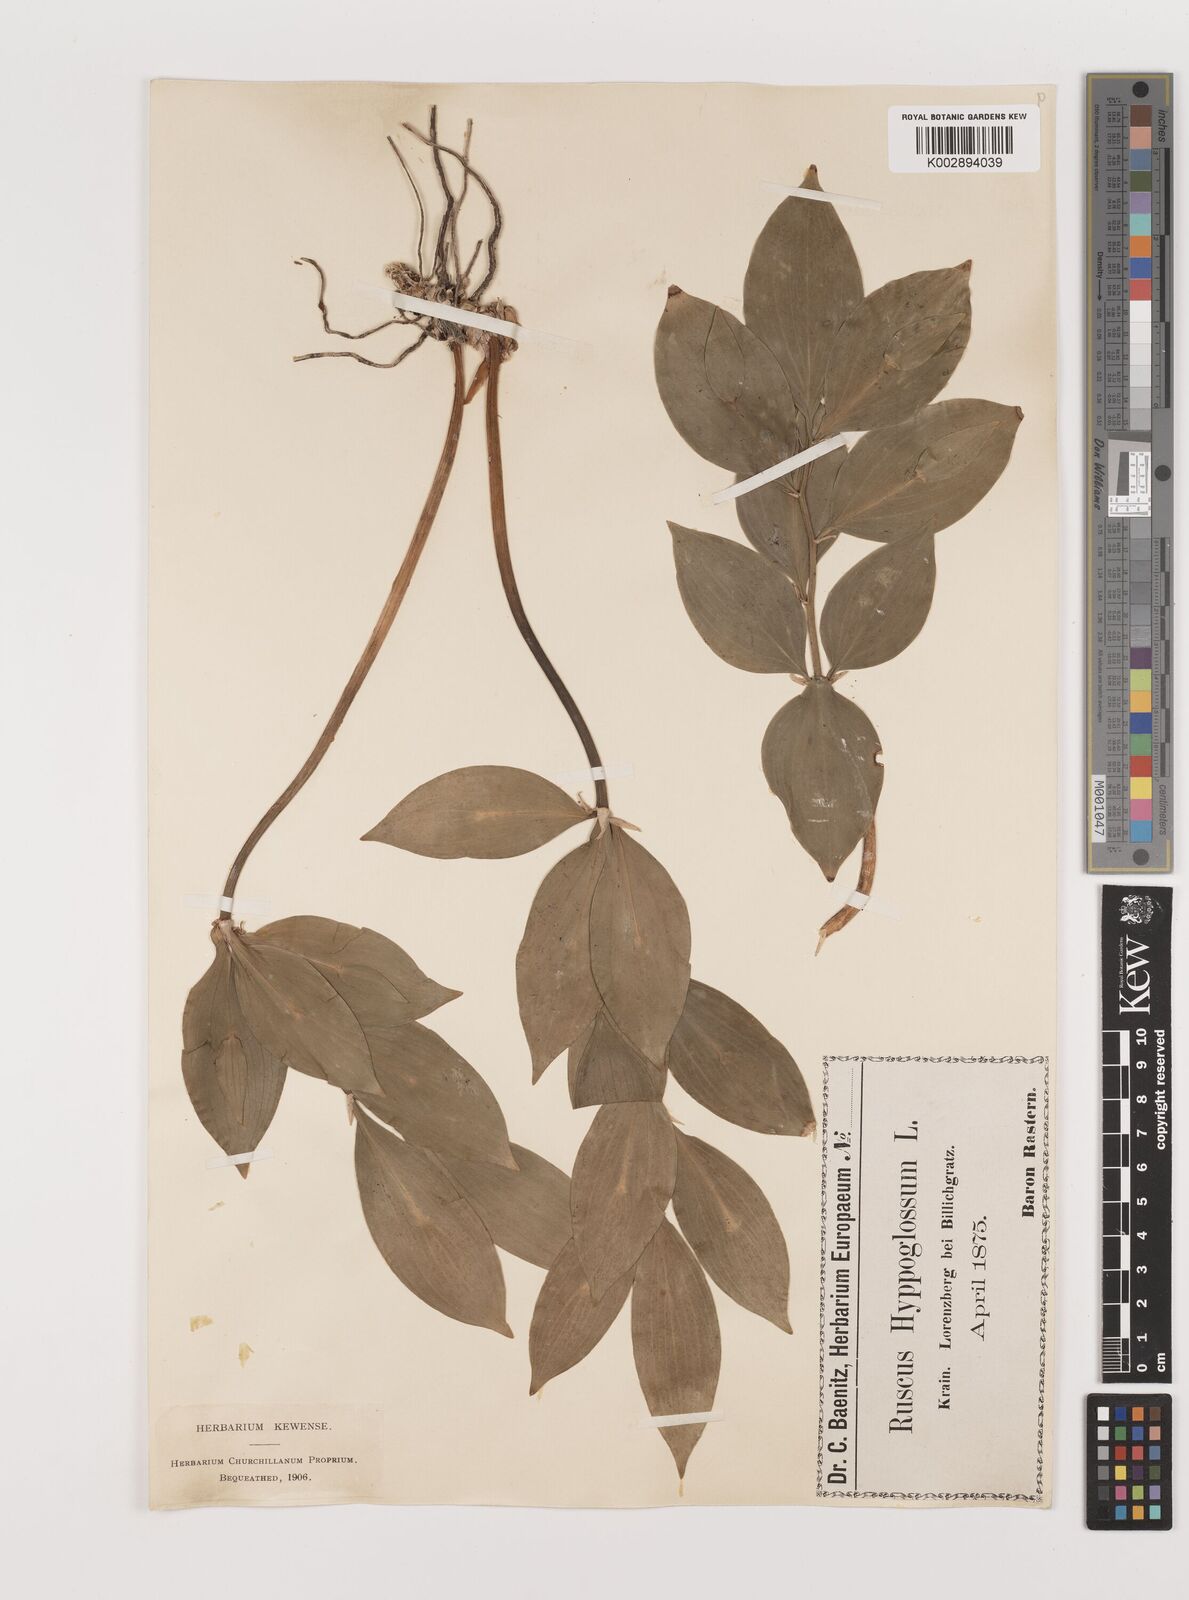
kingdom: Plantae
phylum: Tracheophyta
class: Liliopsida
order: Asparagales
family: Asparagaceae
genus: Ruscus
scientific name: Ruscus hypoglossum
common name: Spineless butcher's-broom
